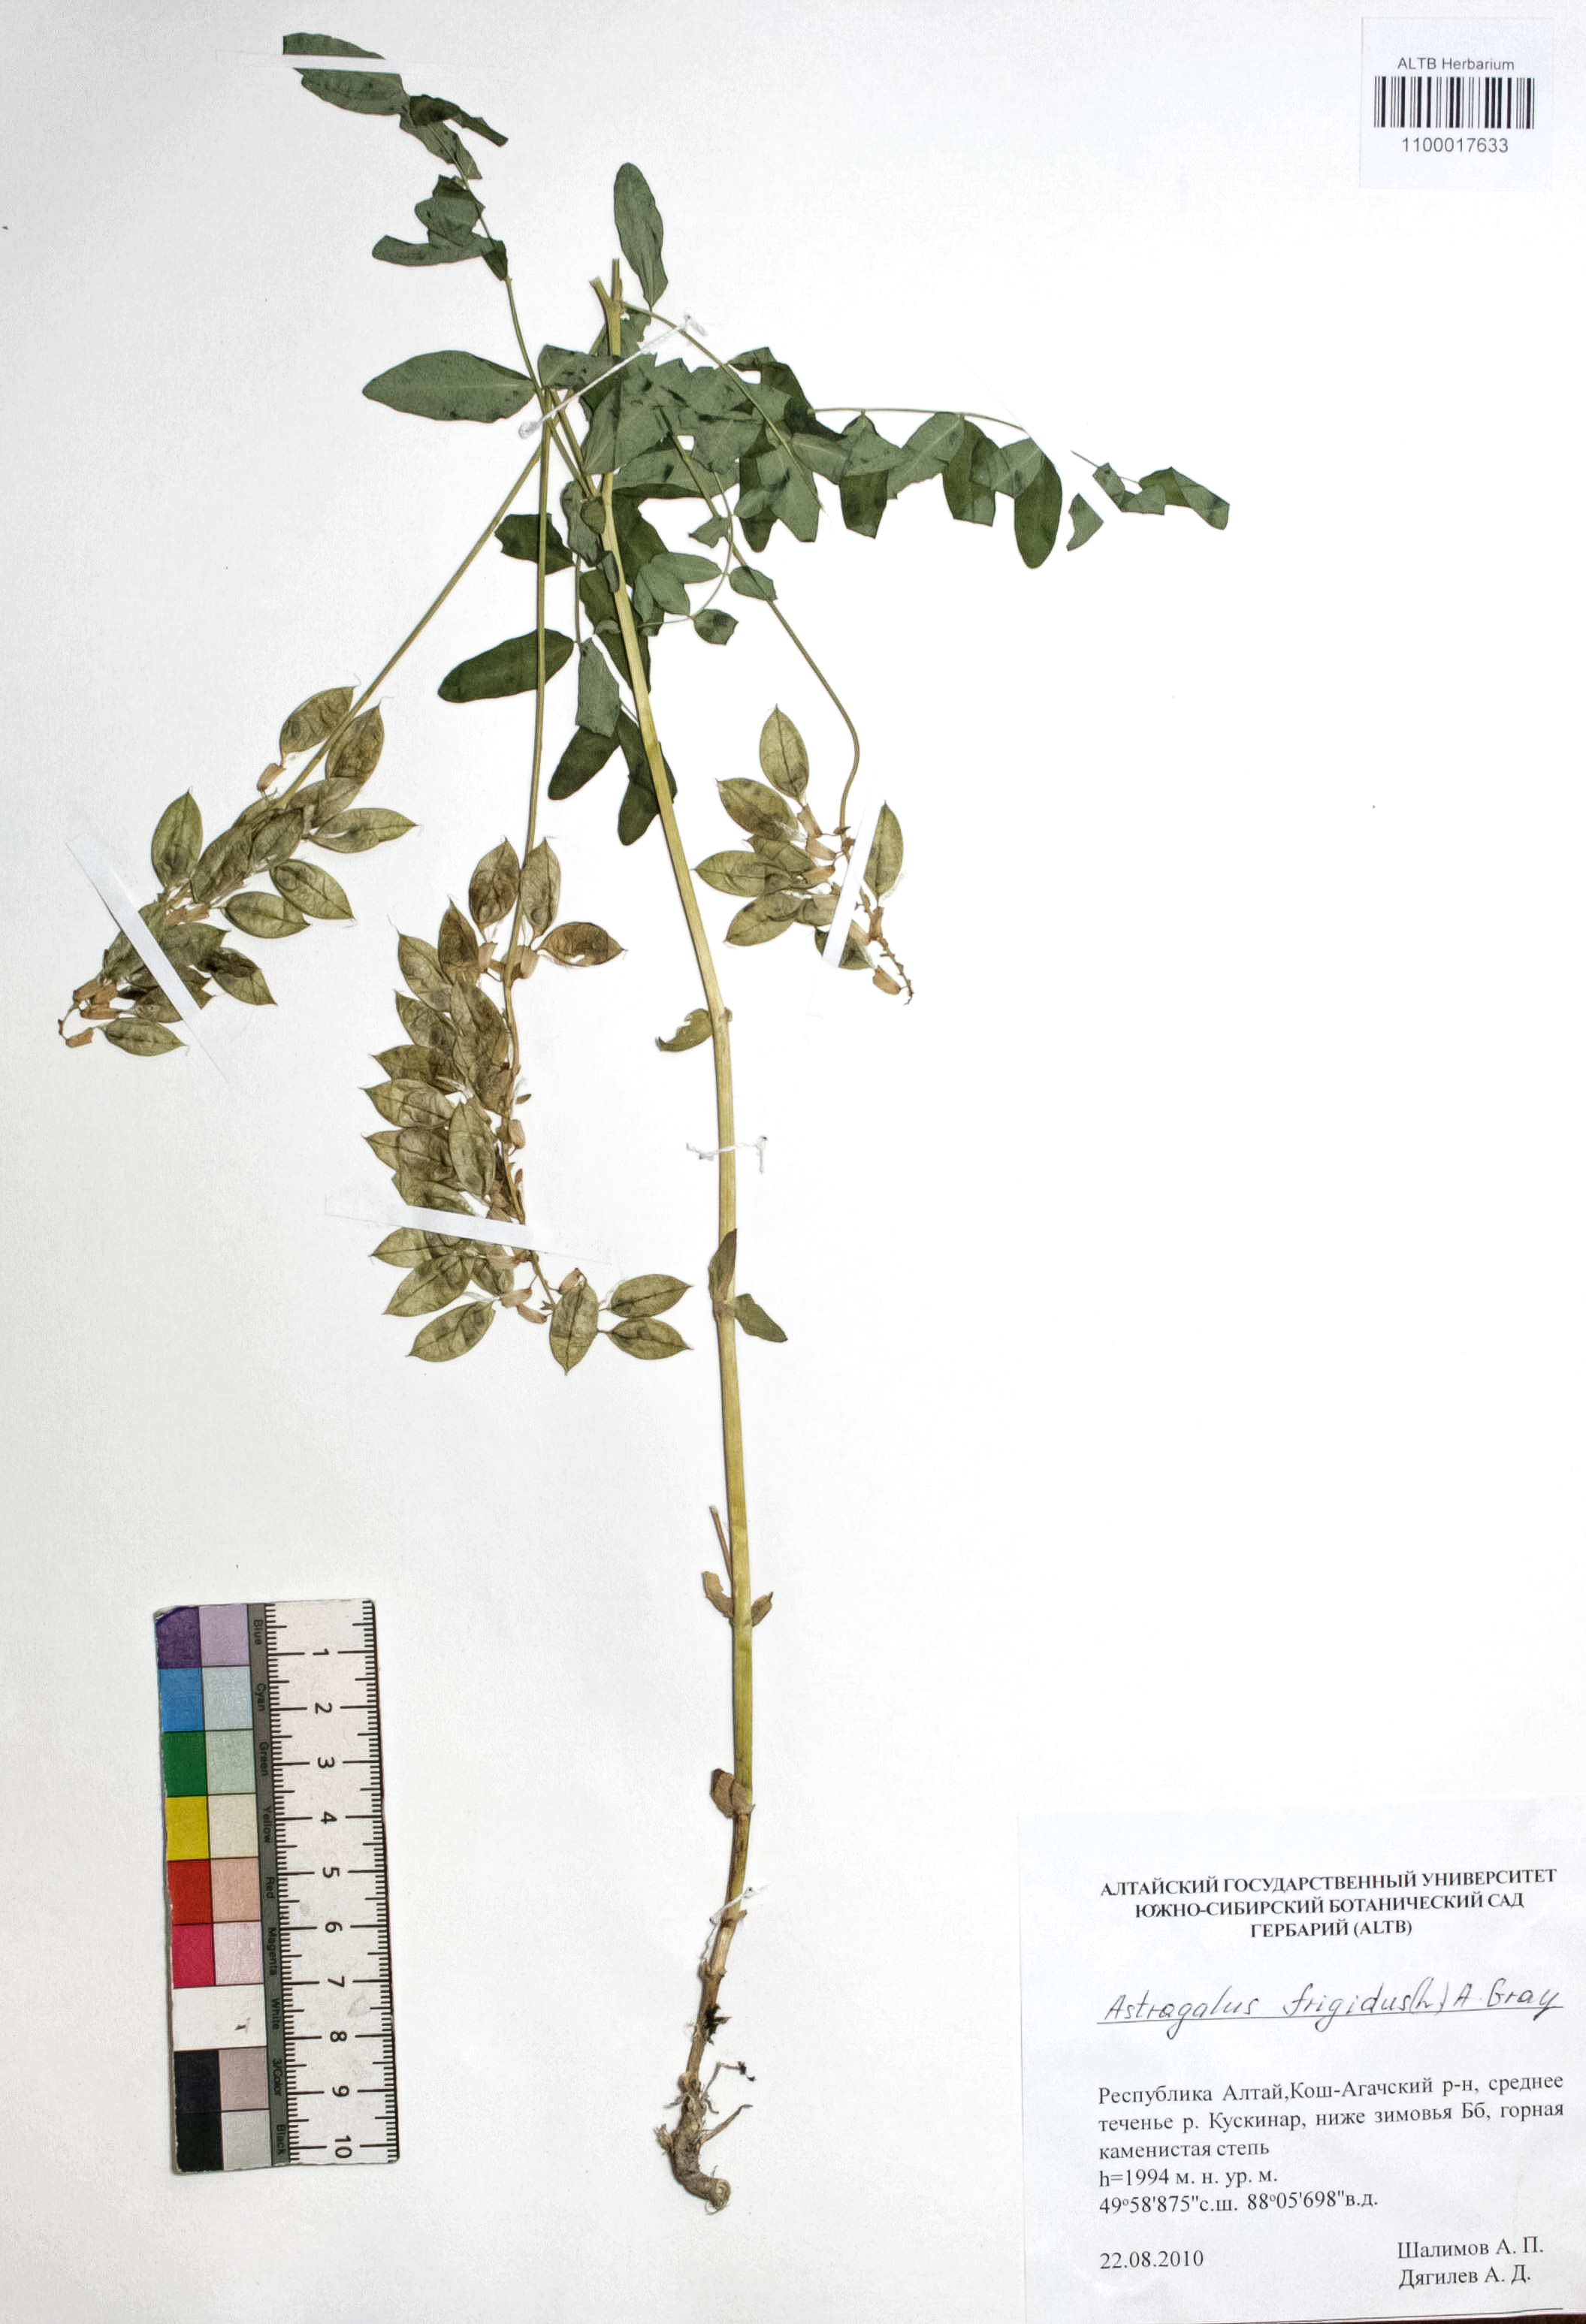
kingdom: Plantae
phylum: Tracheophyta
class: Magnoliopsida
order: Fabales
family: Fabaceae
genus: Astragalus
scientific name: Astragalus frigidus
